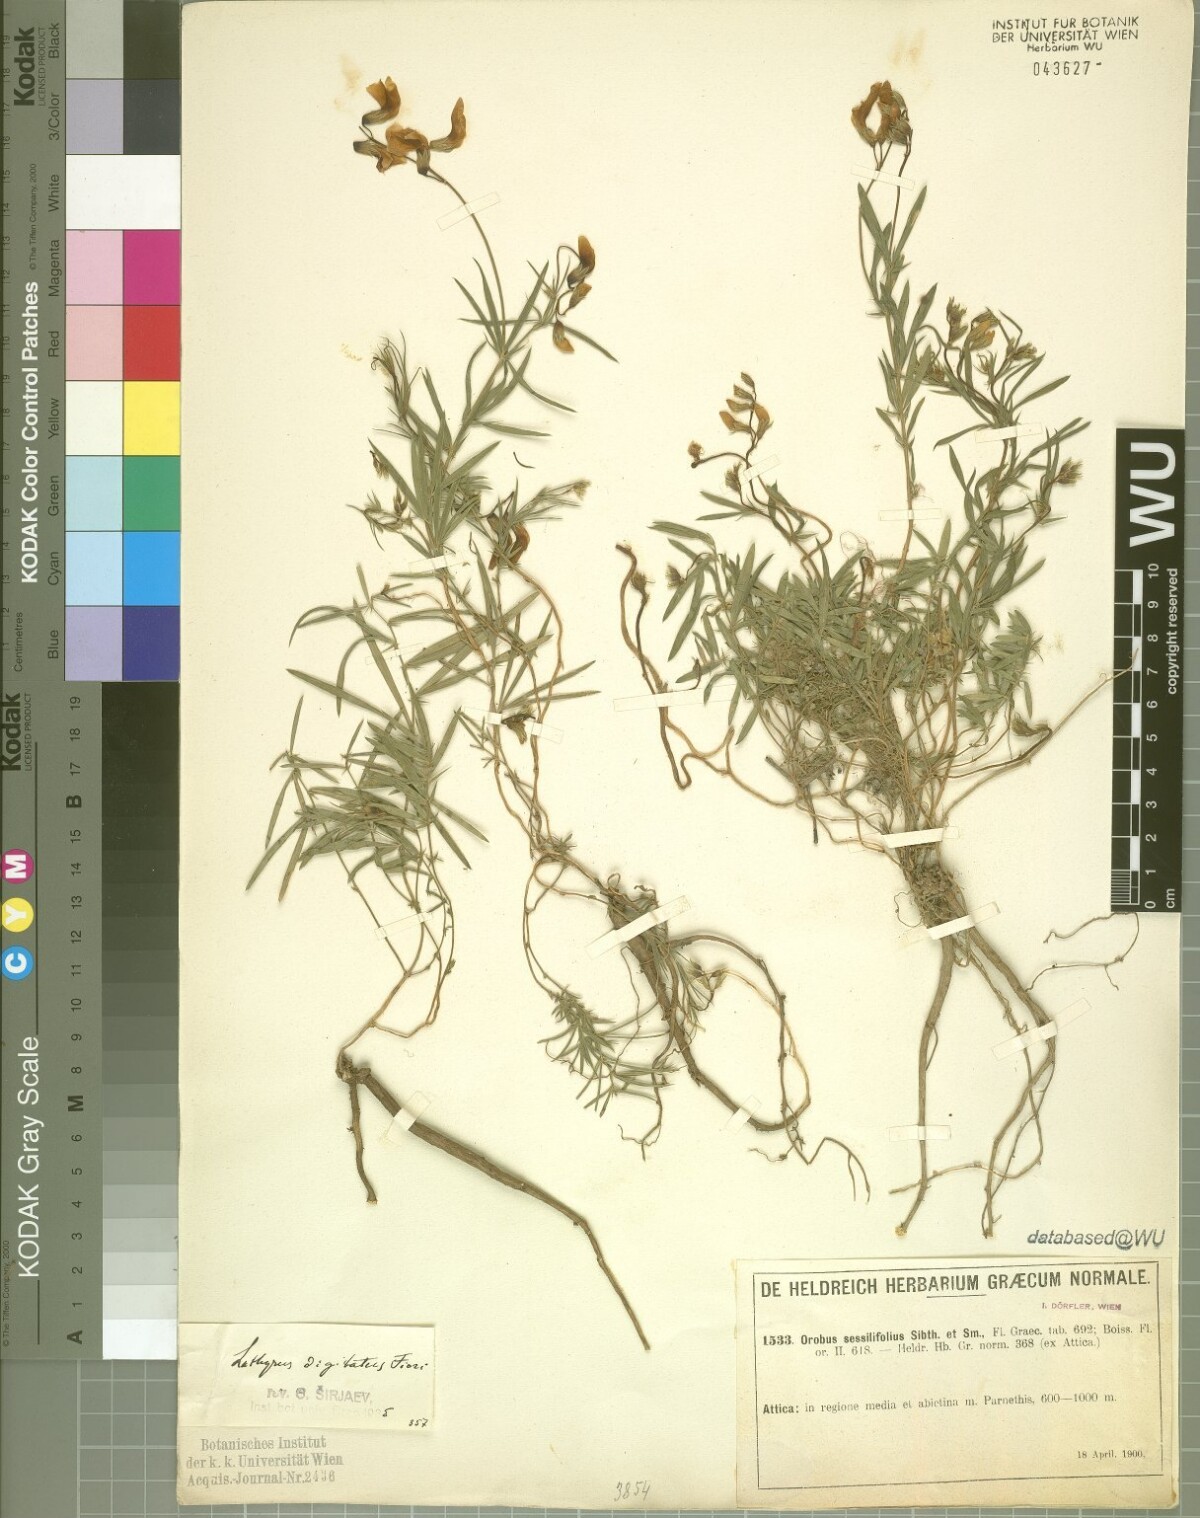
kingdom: Plantae
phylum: Tracheophyta
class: Magnoliopsida
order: Fabales
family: Fabaceae
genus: Lathyrus
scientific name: Lathyrus digitatus
